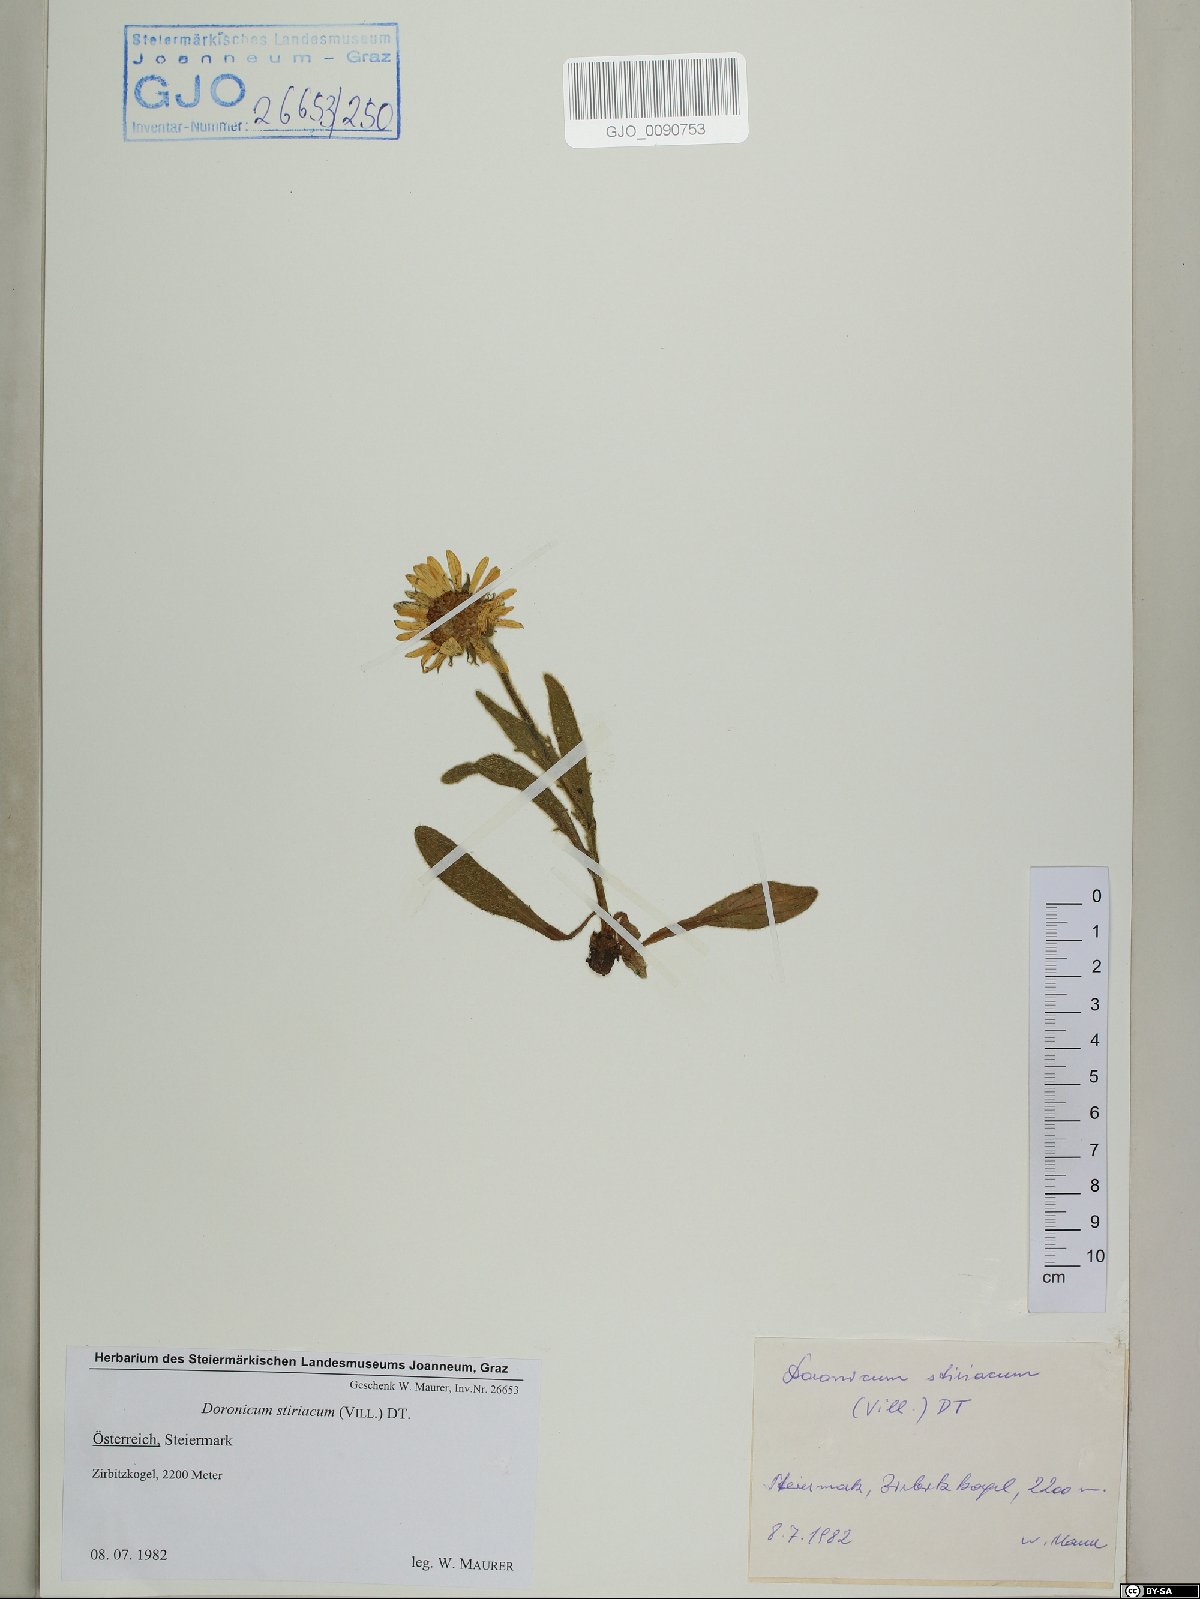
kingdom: Plantae
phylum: Tracheophyta
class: Magnoliopsida
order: Asterales
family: Asteraceae
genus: Doronicum
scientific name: Doronicum clusii
